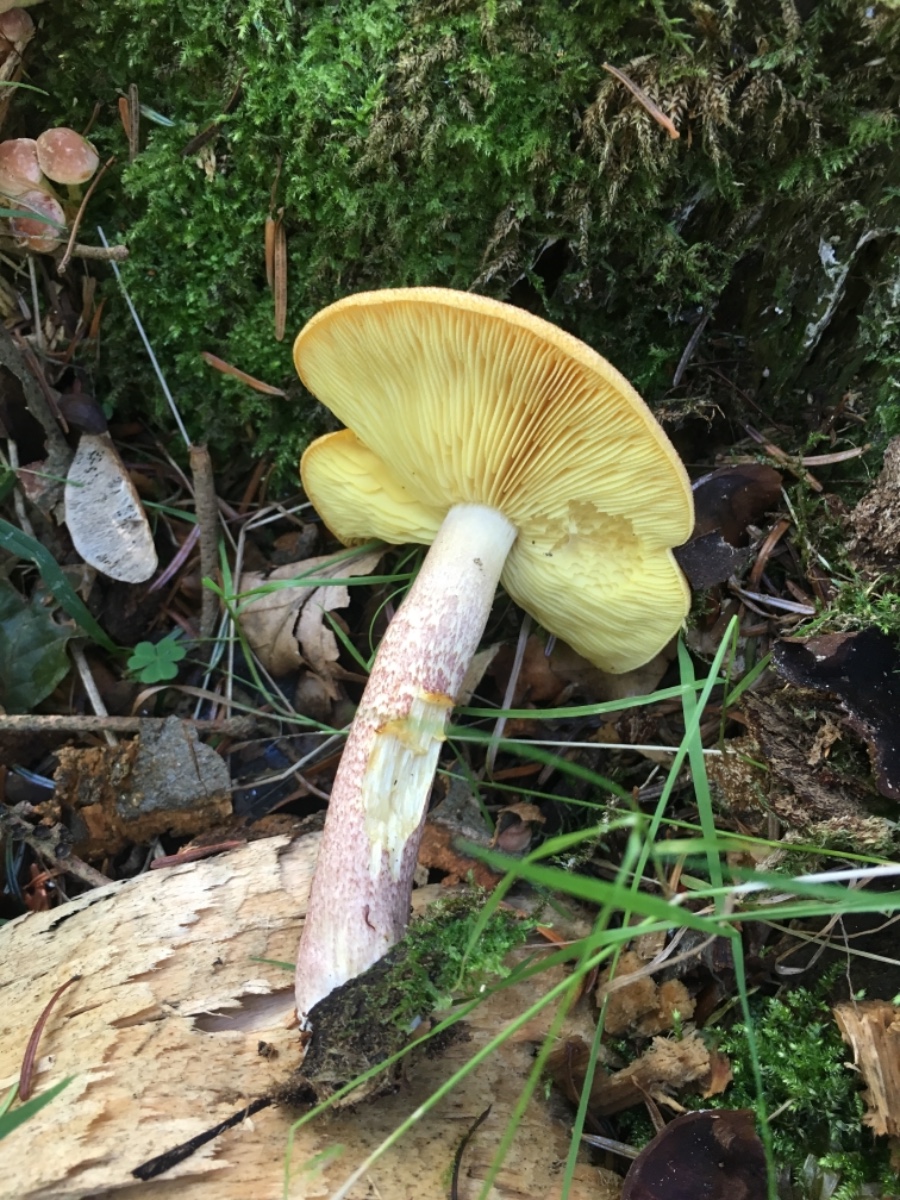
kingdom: Fungi
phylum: Basidiomycota
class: Agaricomycetes
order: Agaricales
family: Tricholomataceae
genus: Tricholomopsis
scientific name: Tricholomopsis rutilans
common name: purpur-væbnerhat
